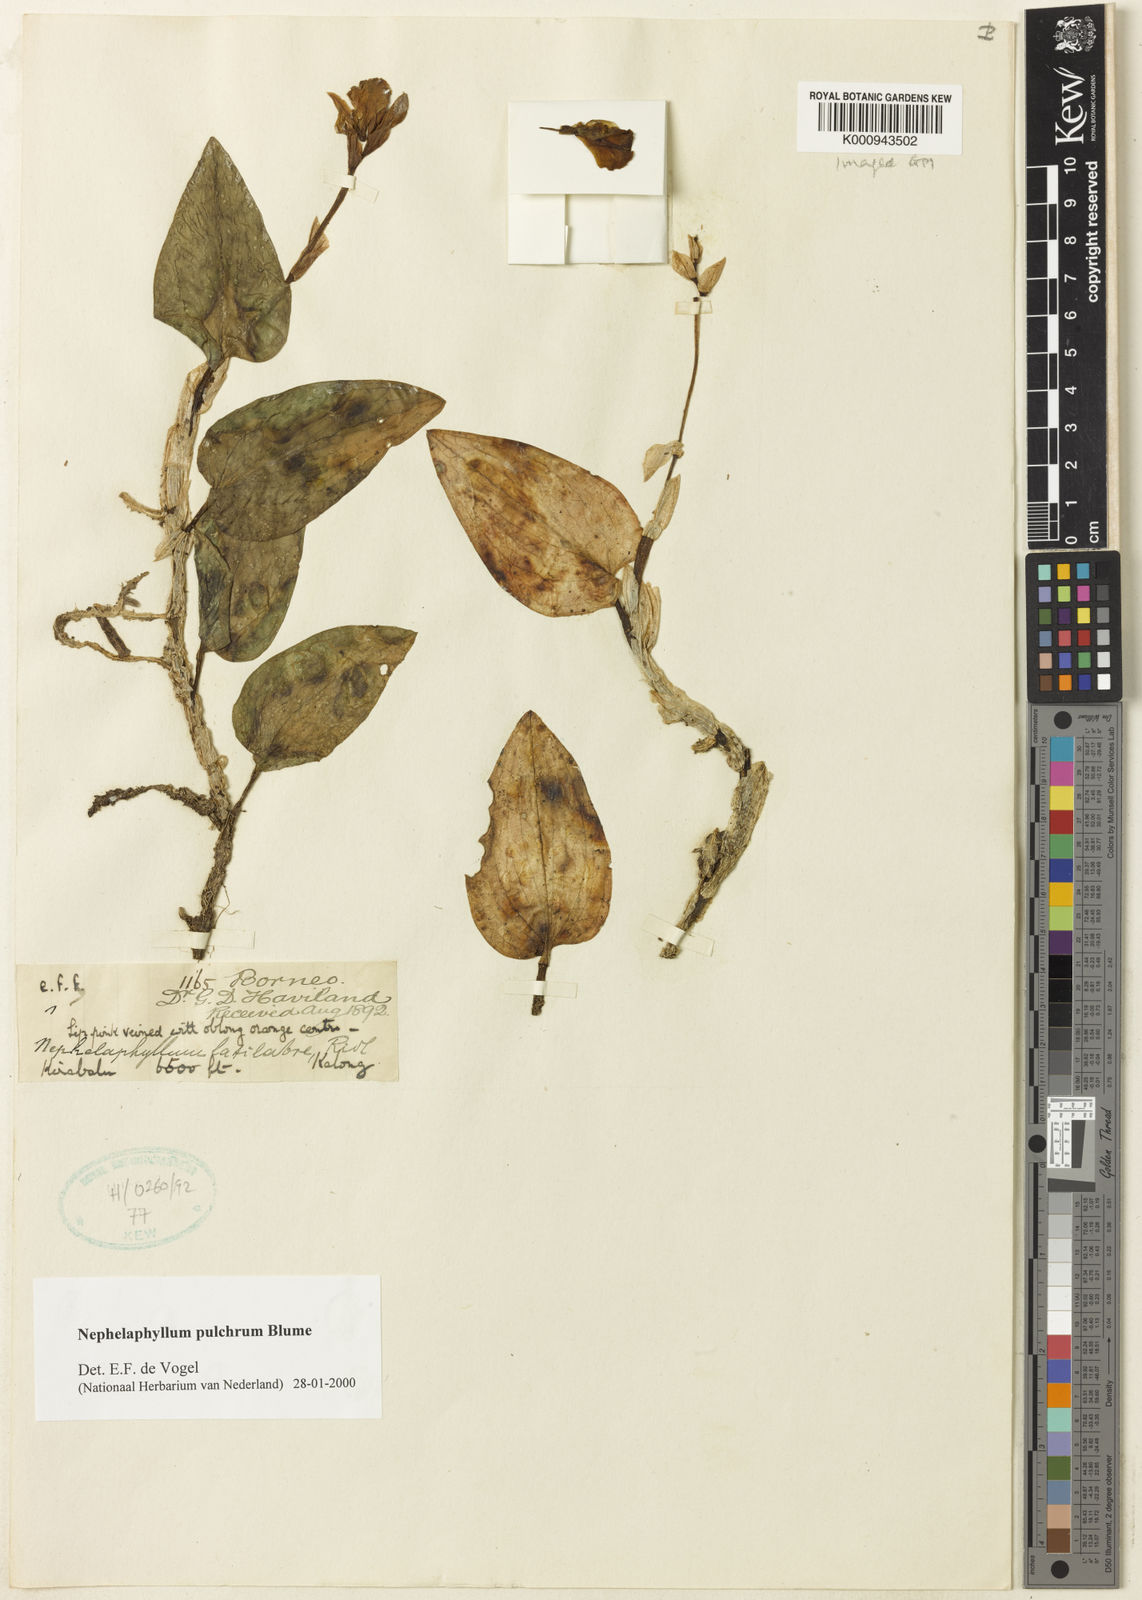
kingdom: Plantae
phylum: Tracheophyta
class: Liliopsida
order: Asparagales
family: Orchidaceae
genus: Nephelaphyllum
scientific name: Nephelaphyllum pulchrum
